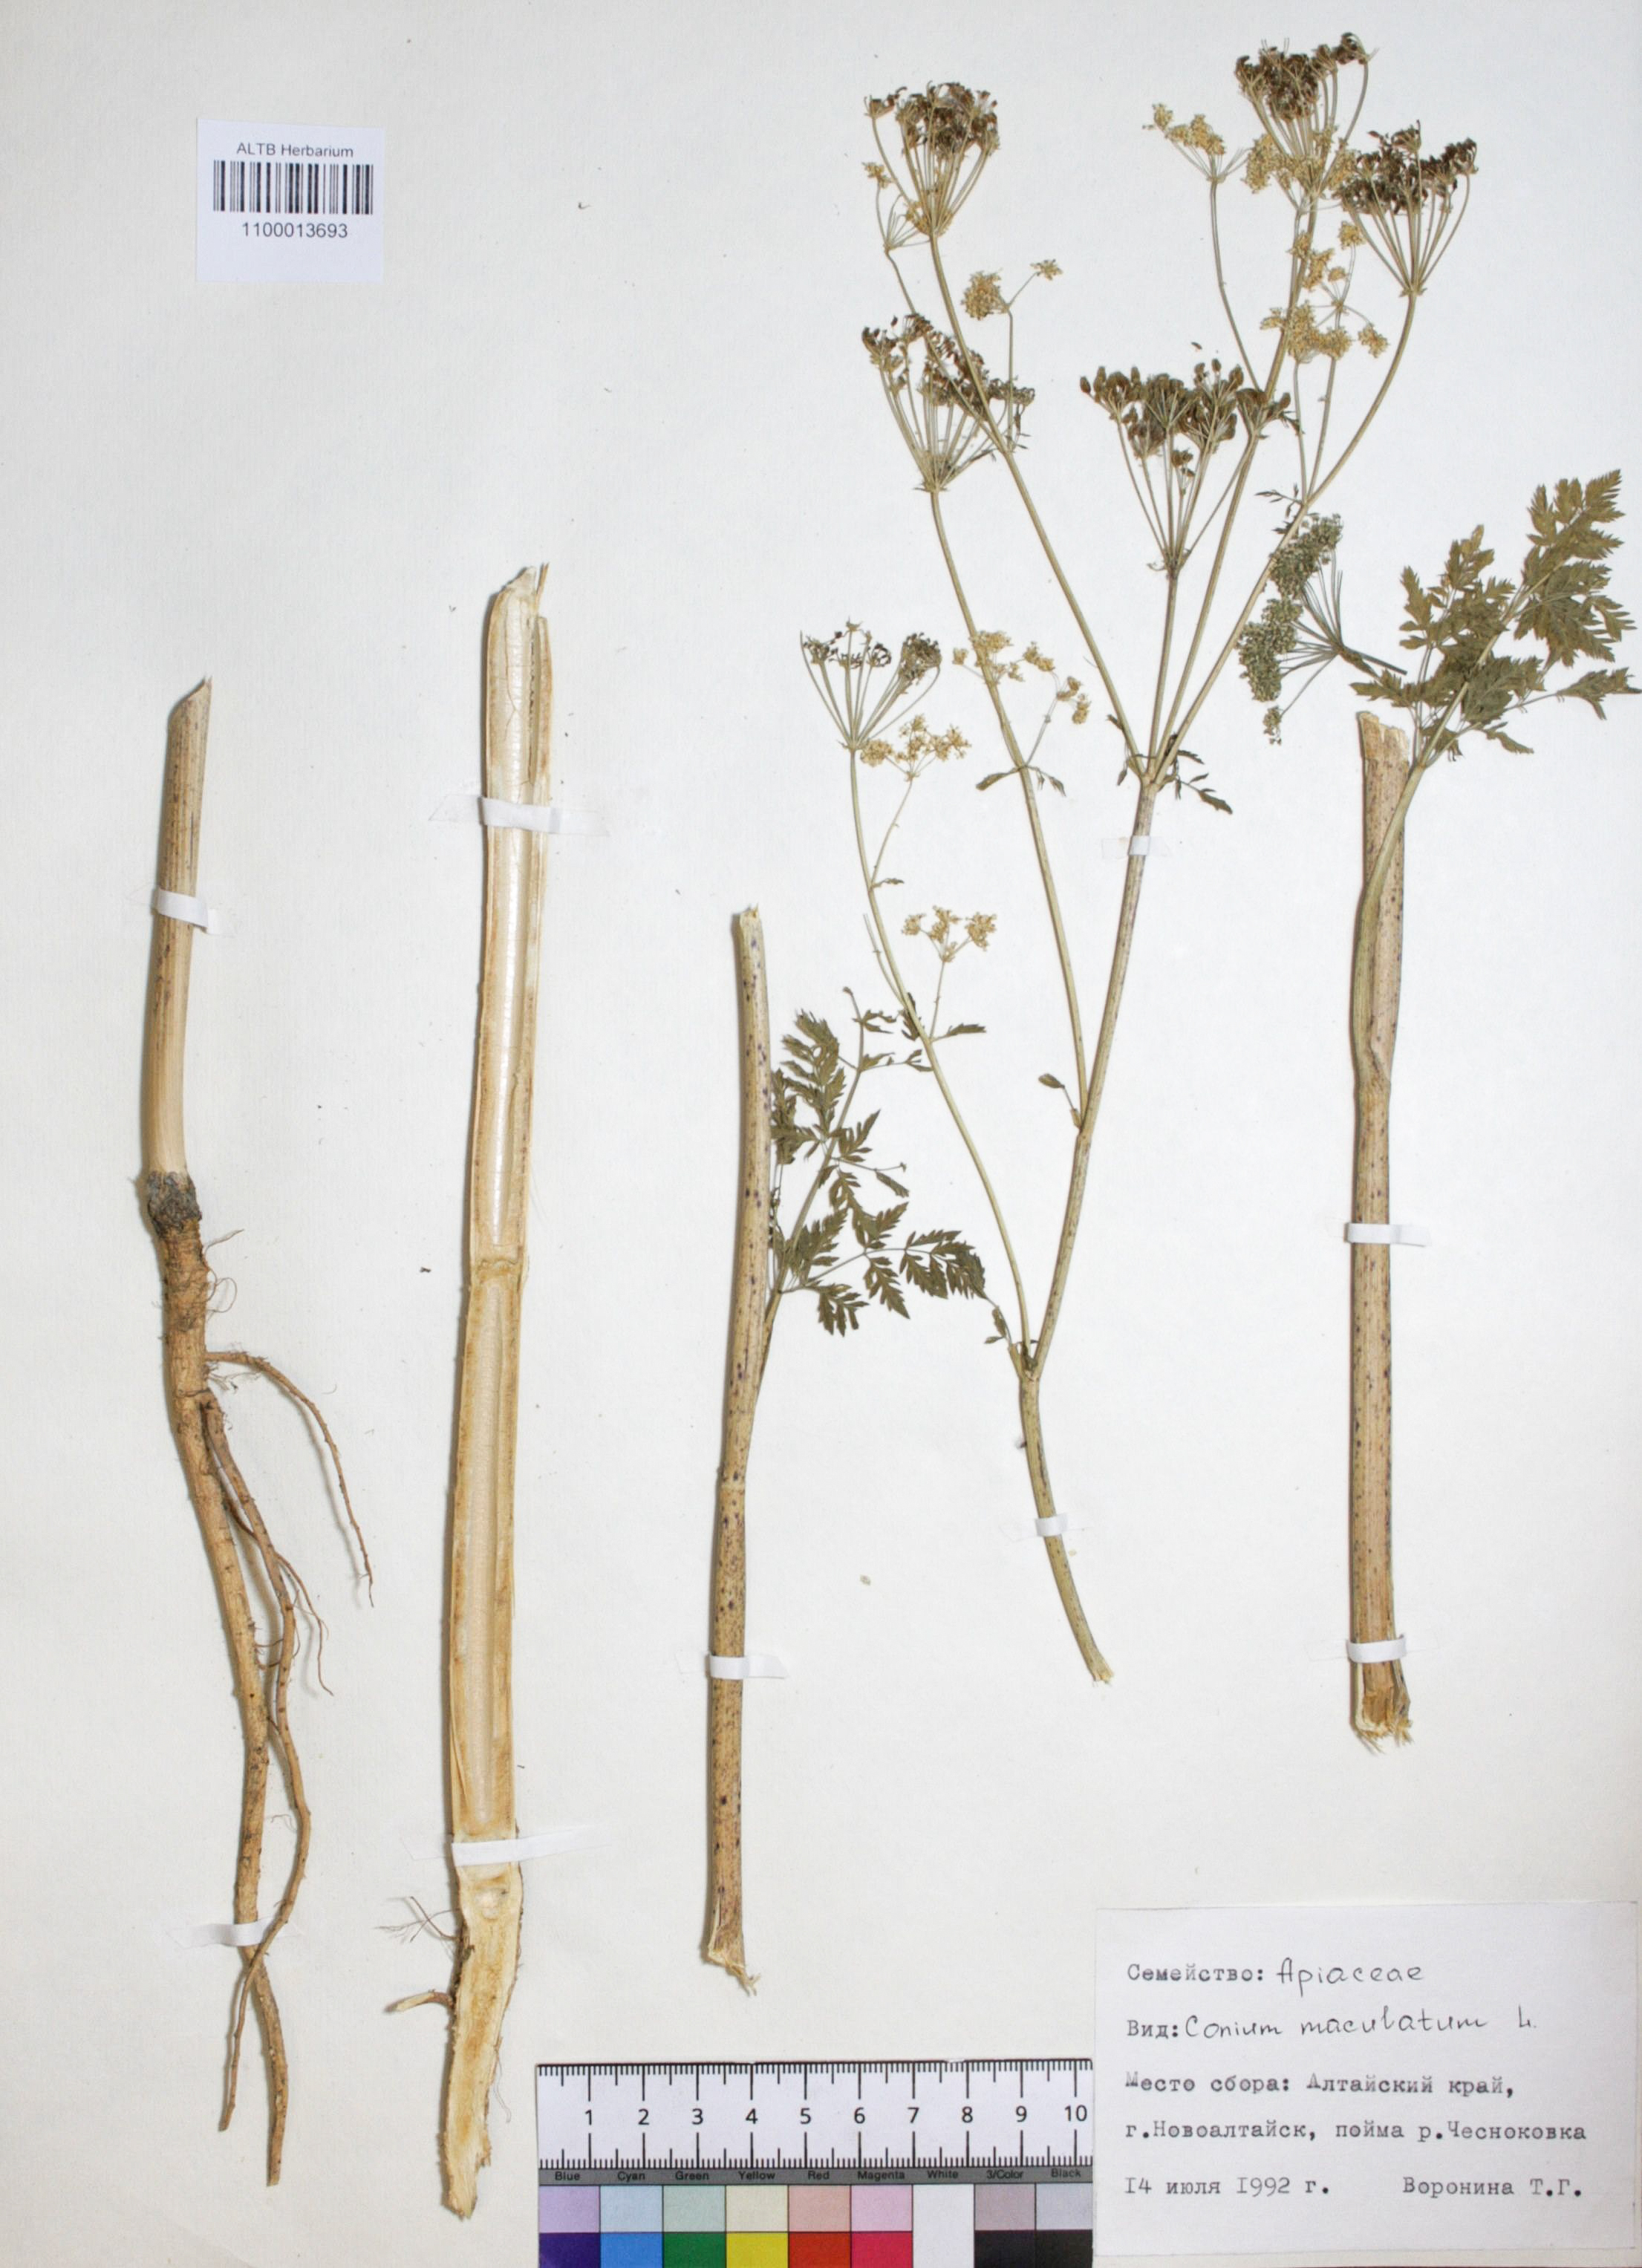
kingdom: Plantae
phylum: Tracheophyta
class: Magnoliopsida
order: Apiales
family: Apiaceae
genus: Conium
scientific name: Conium maculatum
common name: Hemlock
